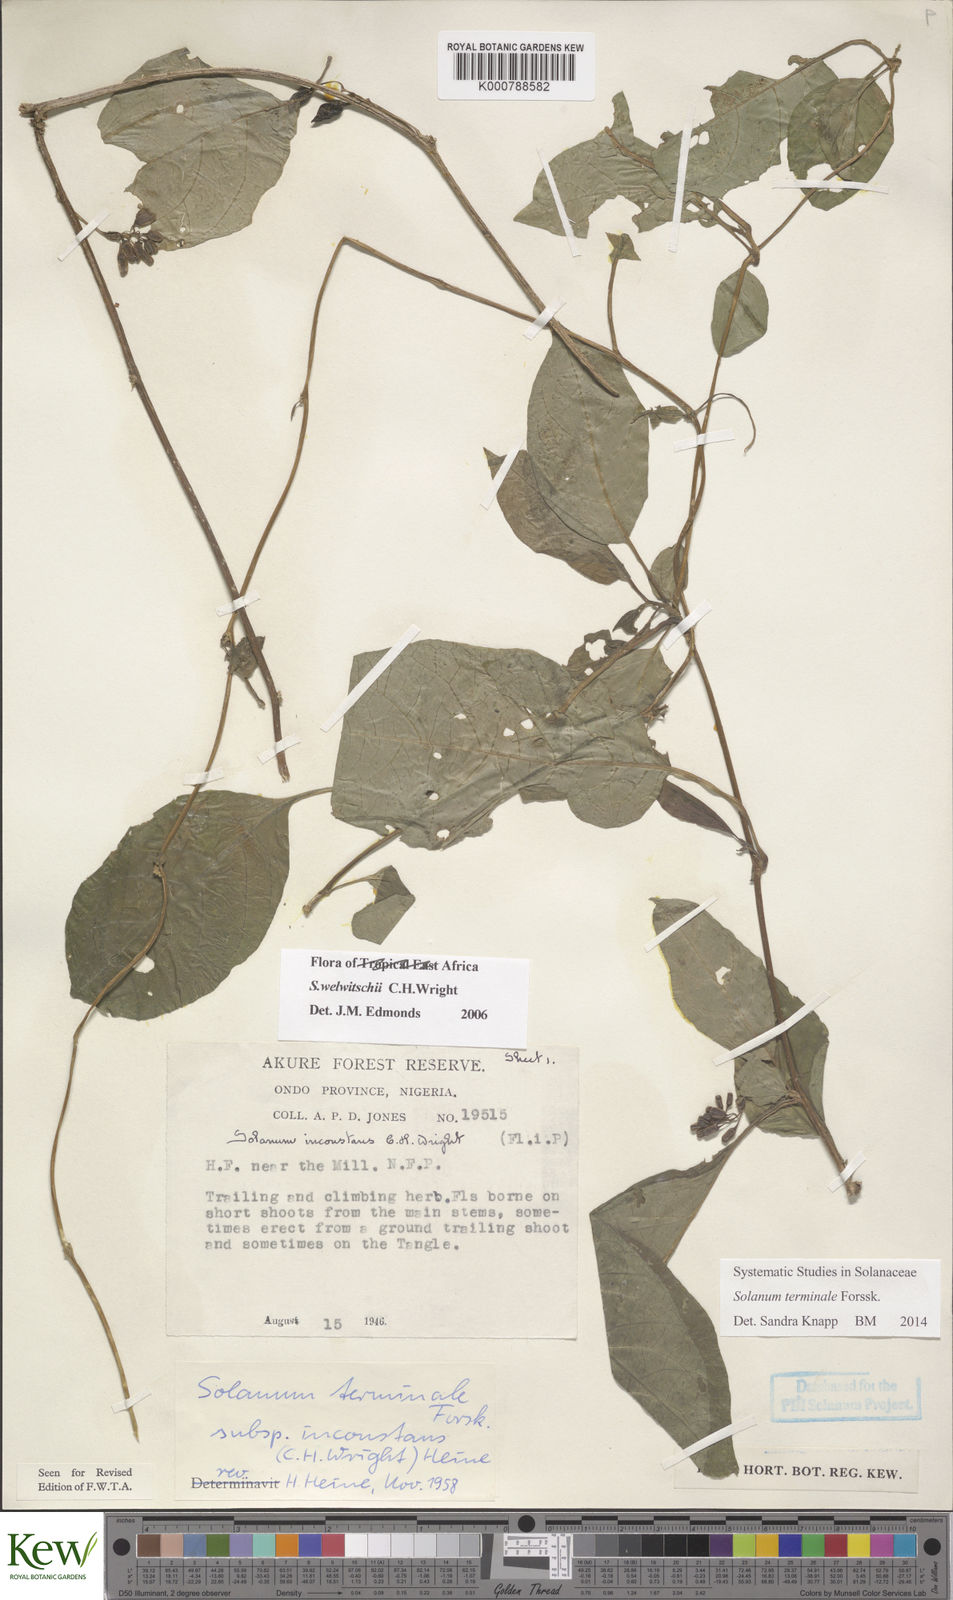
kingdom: Plantae
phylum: Tracheophyta
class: Magnoliopsida
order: Solanales
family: Solanaceae
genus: Solanum
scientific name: Solanum terminale
